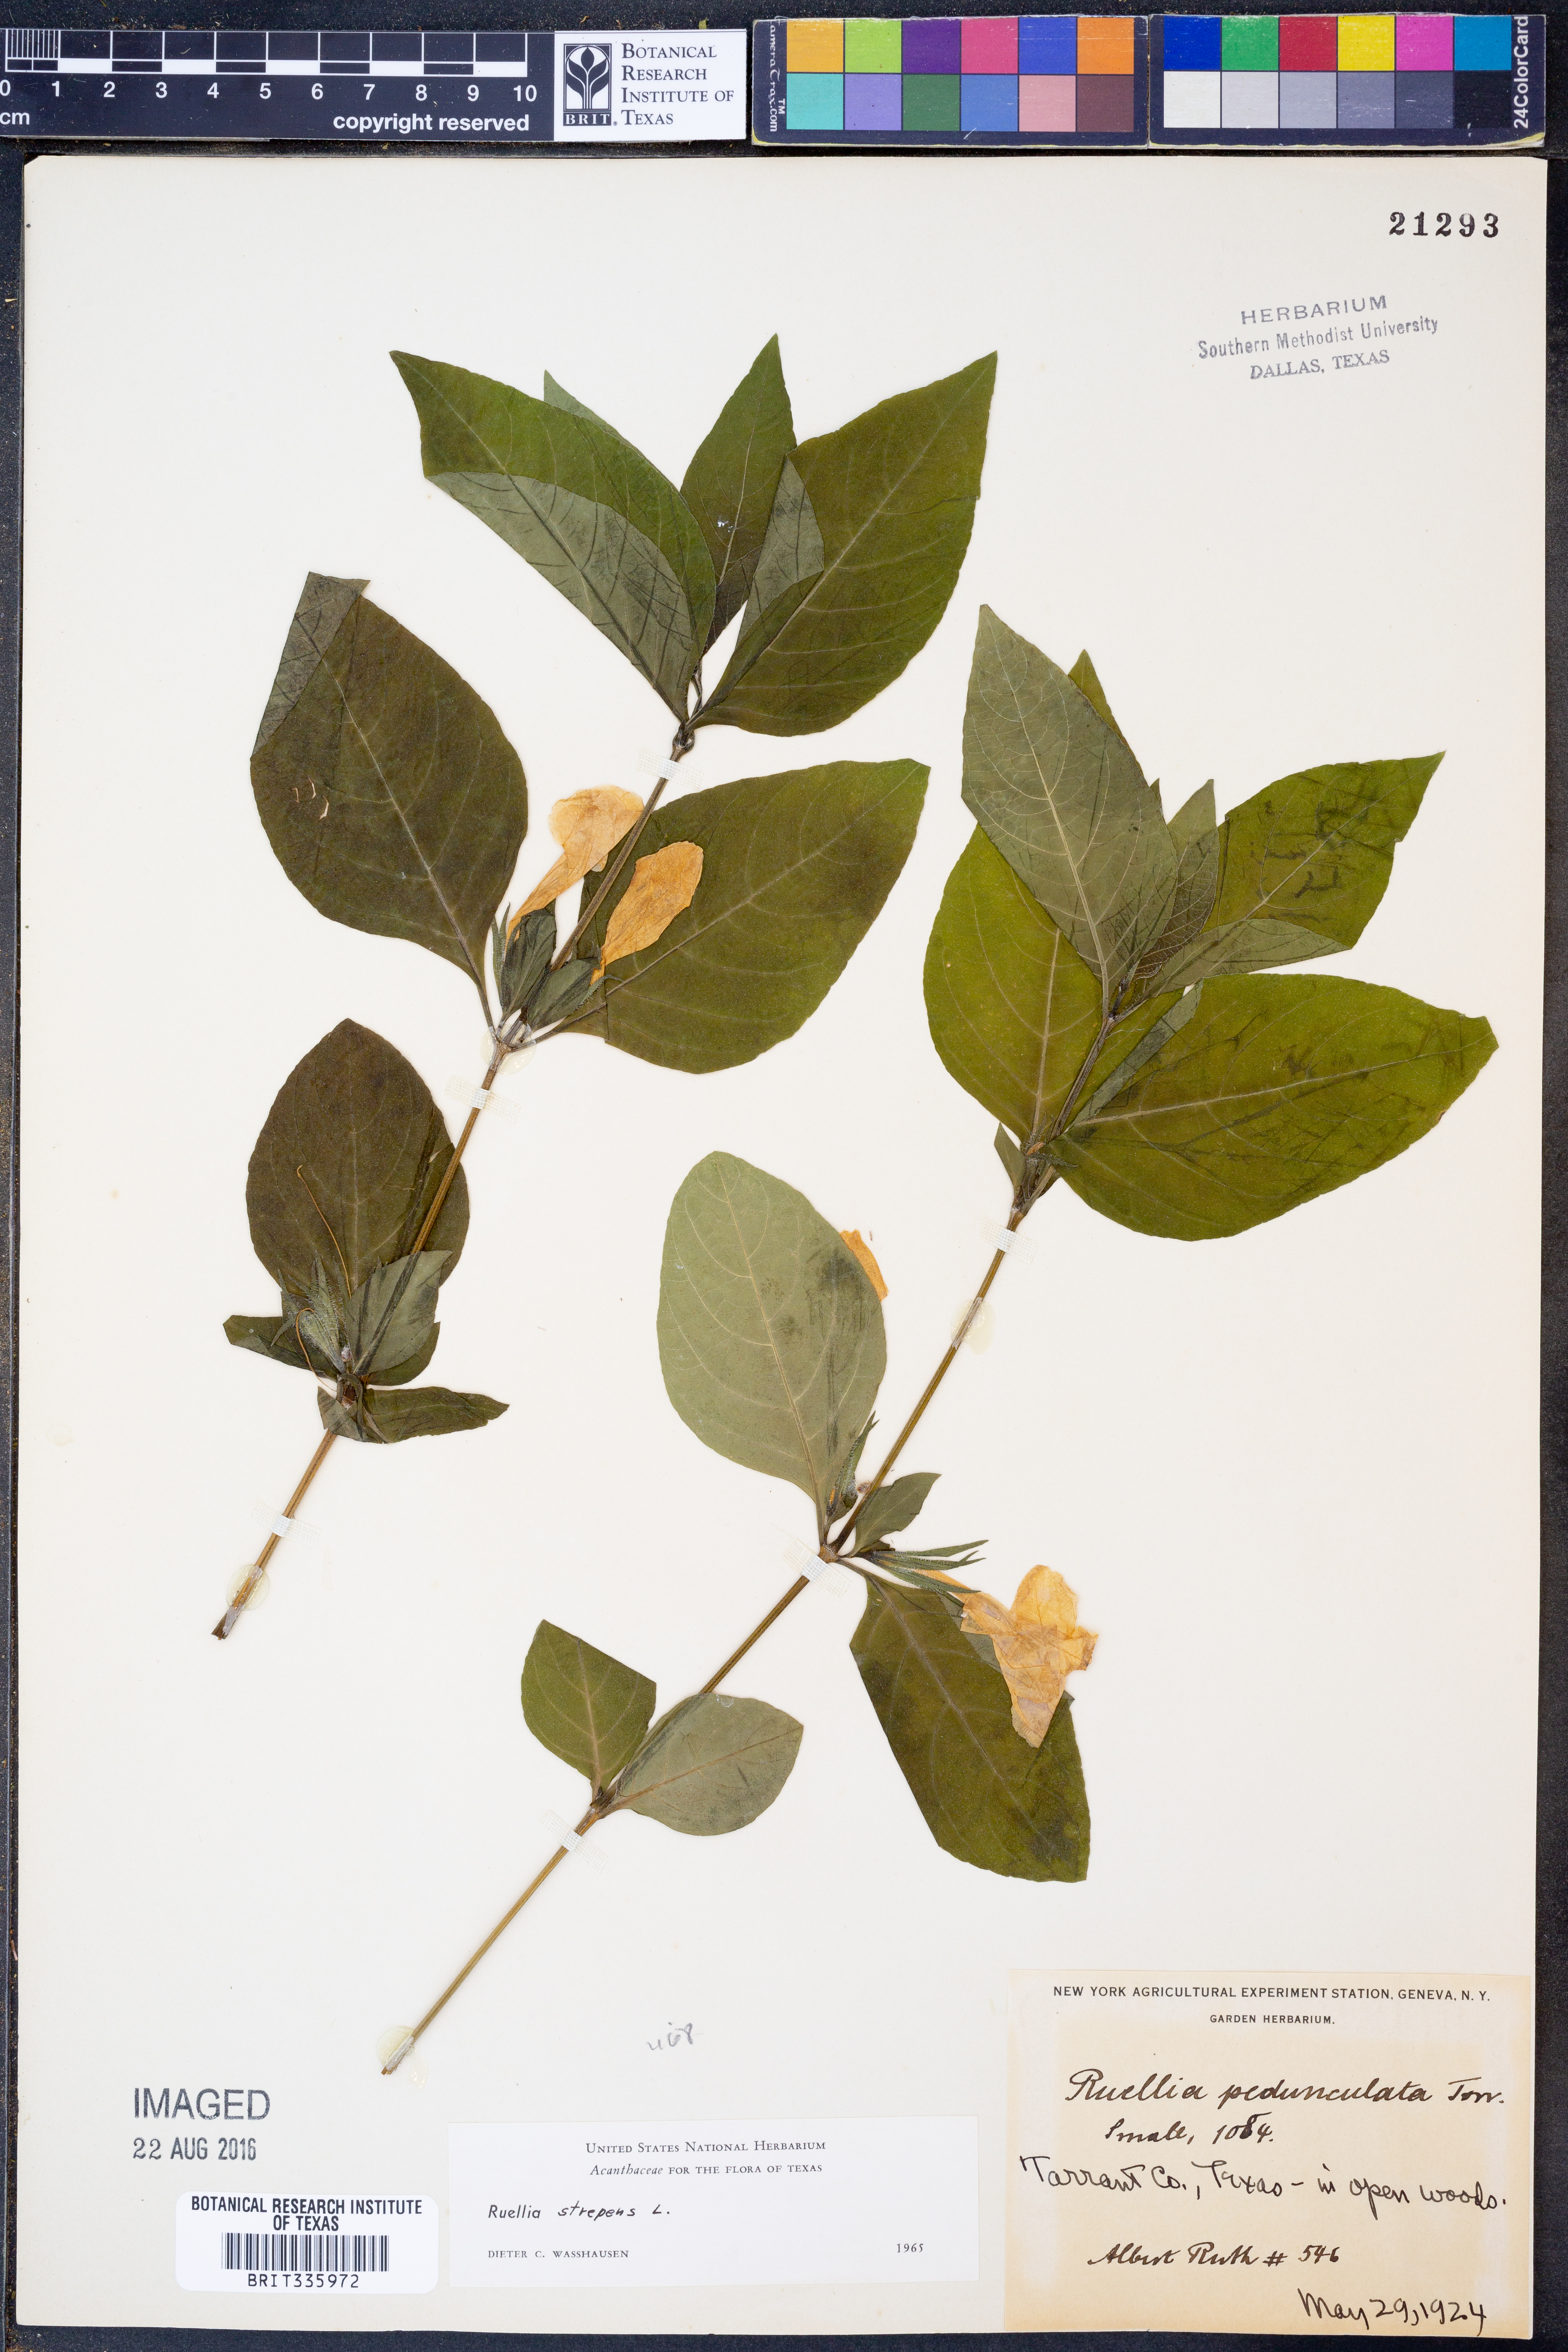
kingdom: Plantae
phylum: Tracheophyta
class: Magnoliopsida
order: Lamiales
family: Acanthaceae
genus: Ruellia
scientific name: Ruellia strepens
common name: Limestone wild petunia
